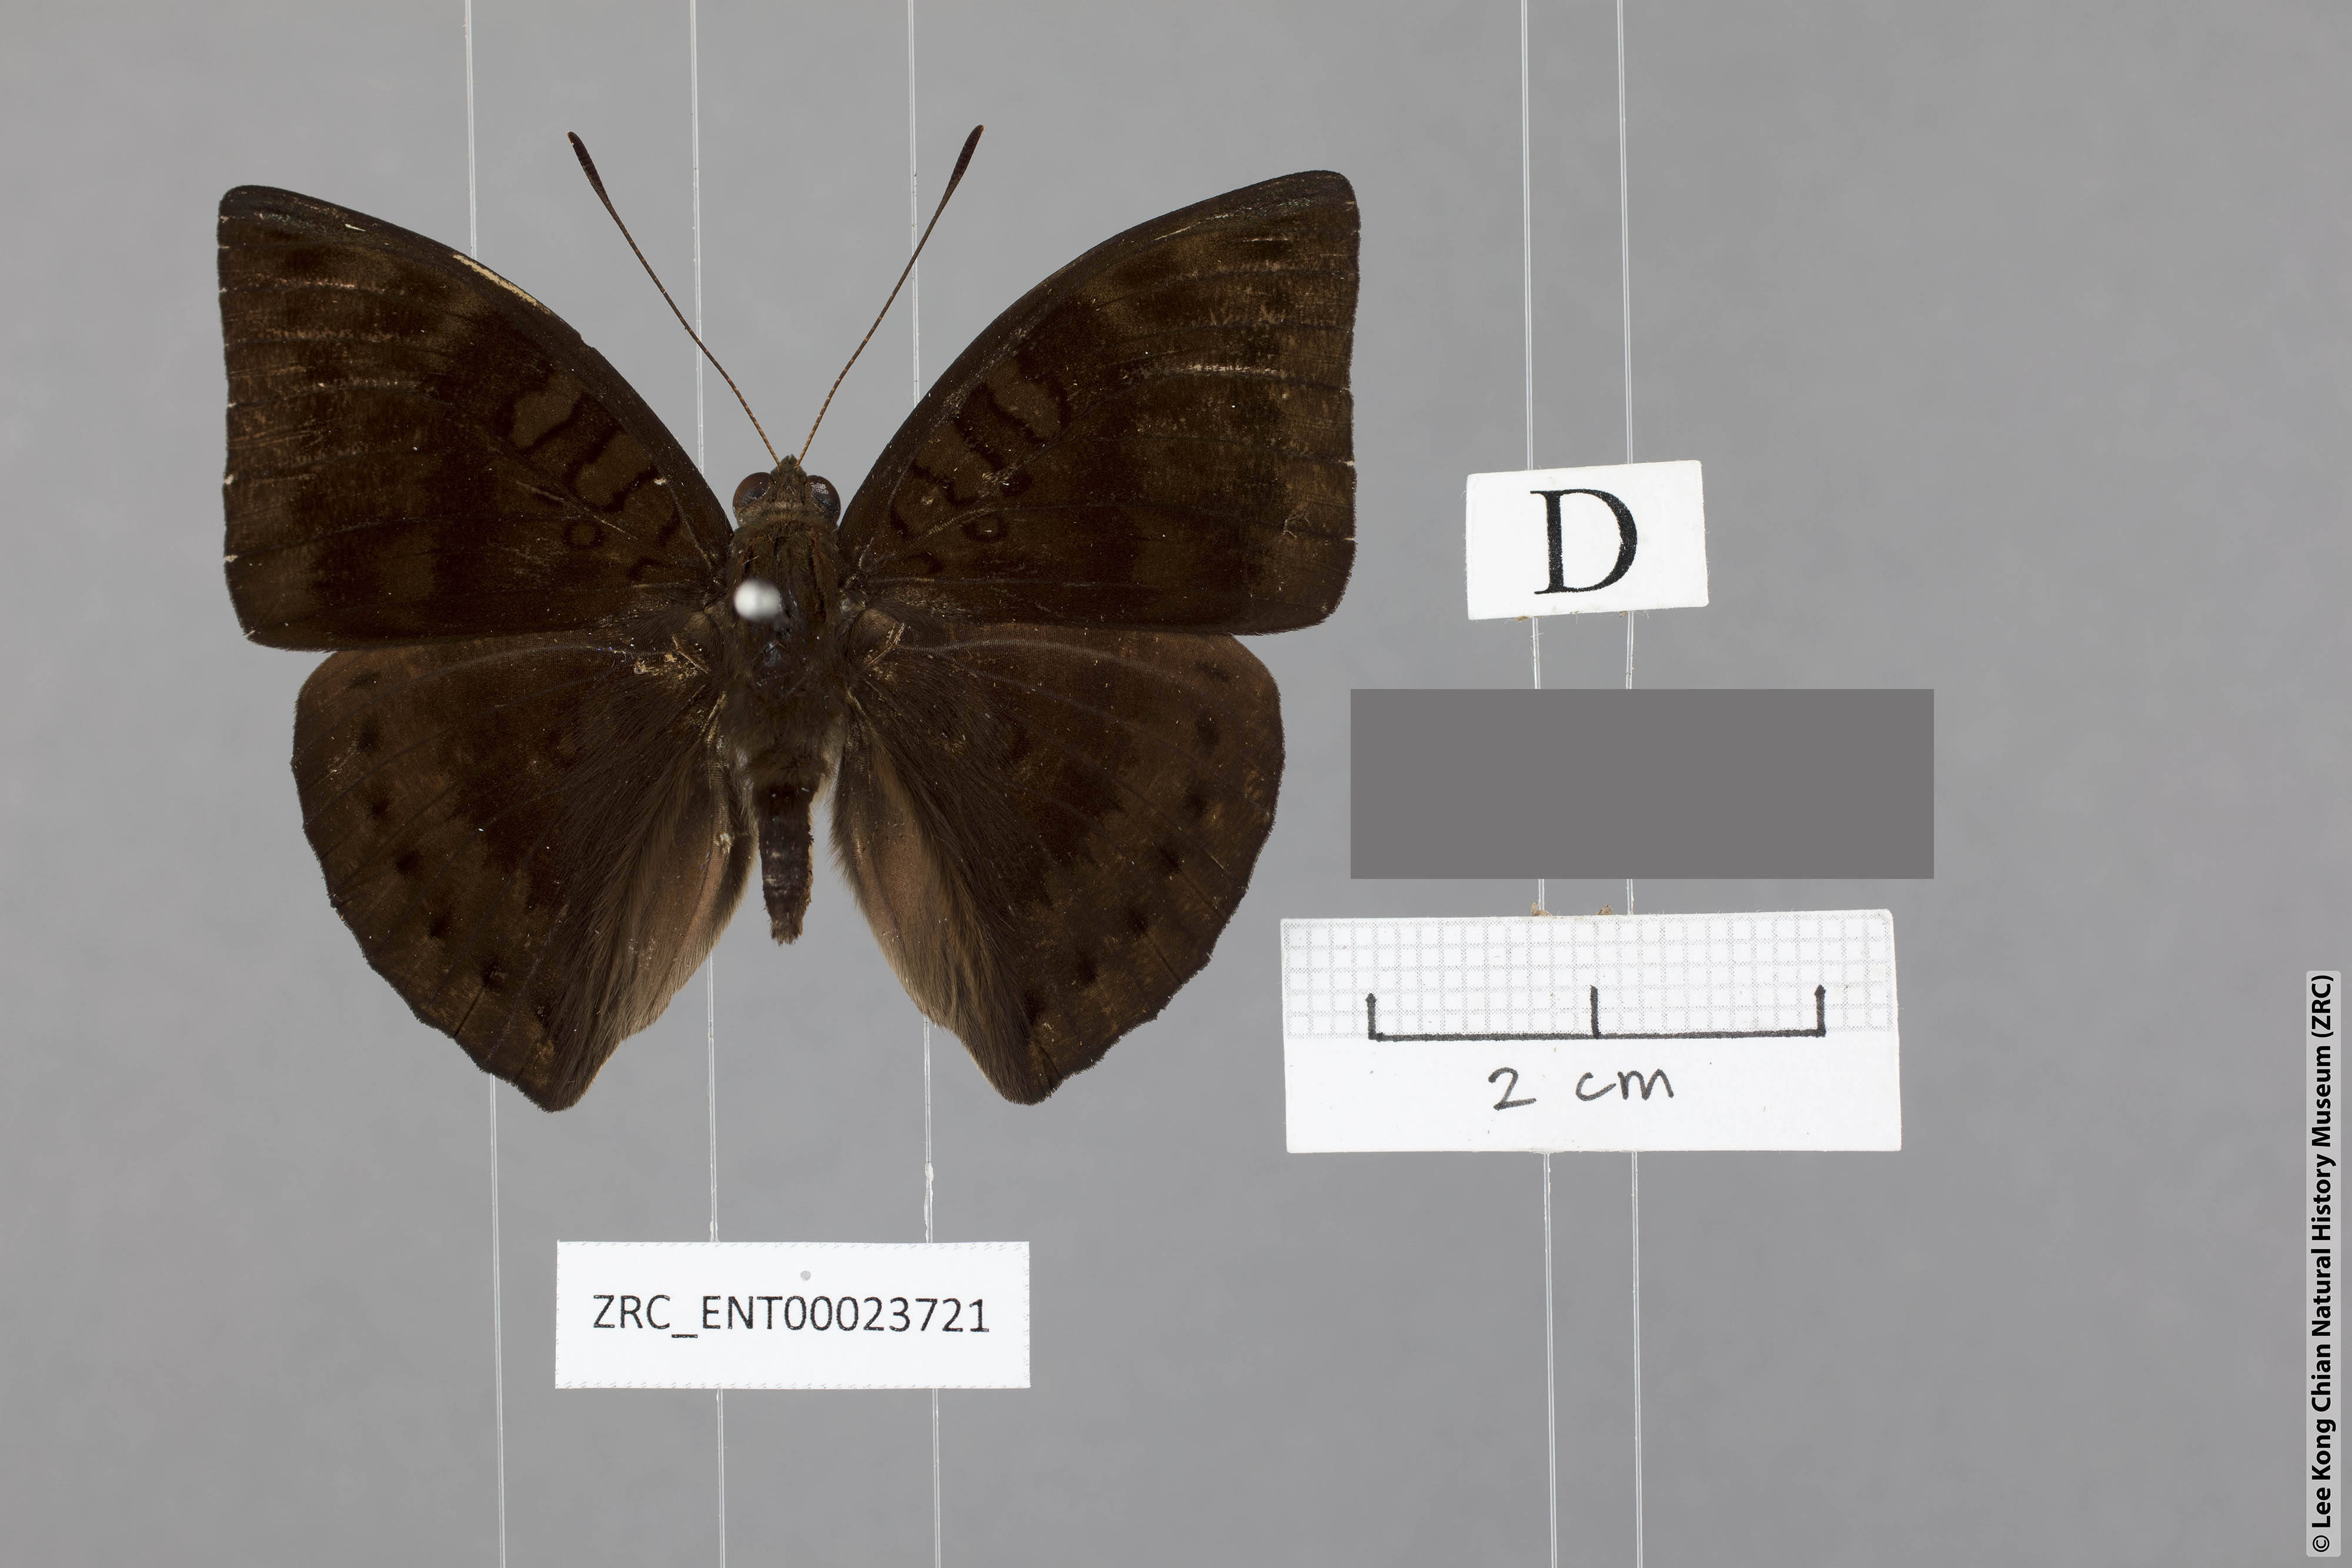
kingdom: Animalia
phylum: Arthropoda
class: Insecta
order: Lepidoptera
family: Nymphalidae
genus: Euthalia
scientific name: Euthalia merta
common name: White tipped baron
